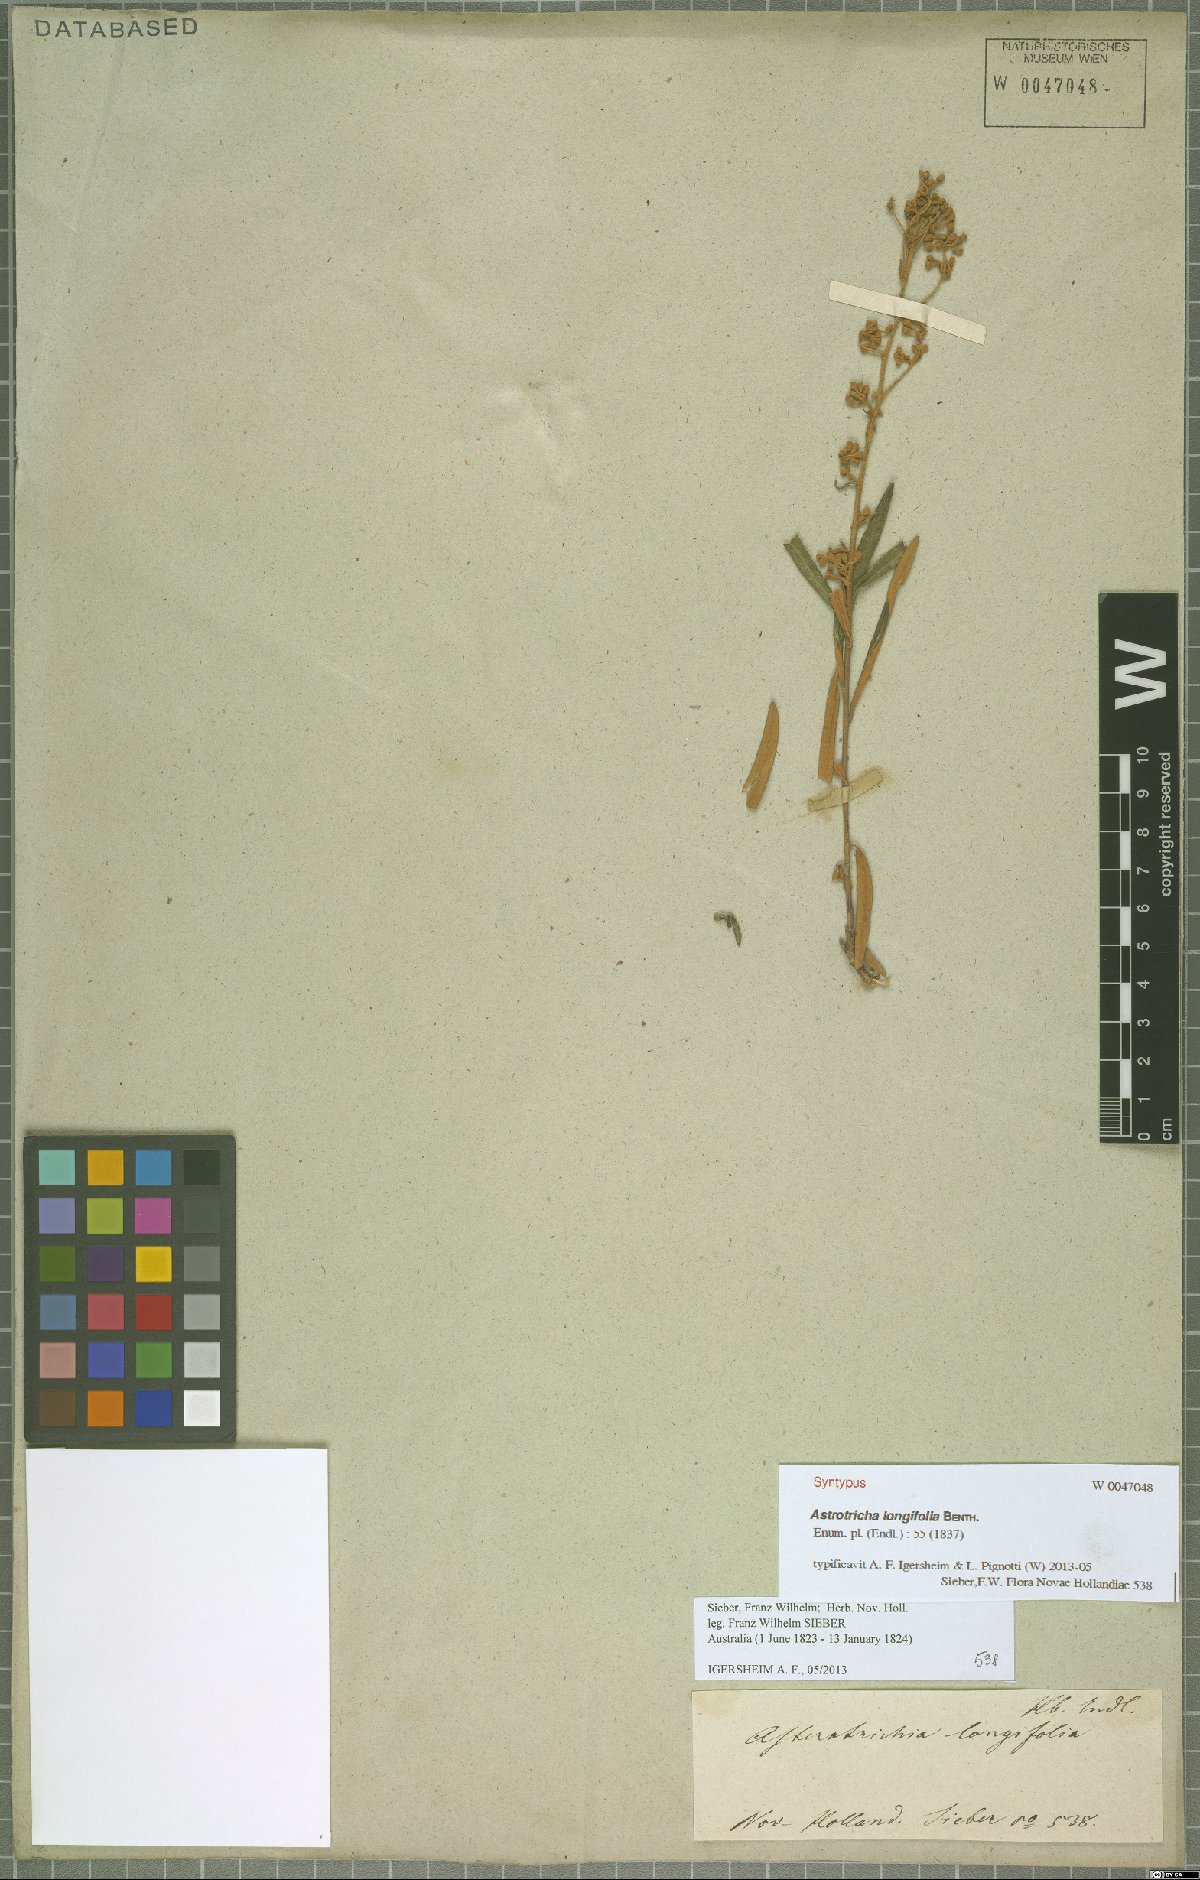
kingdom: Plantae
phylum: Tracheophyta
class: Magnoliopsida
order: Apiales
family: Araliaceae
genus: Astrotricha
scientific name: Astrotricha longifolia
